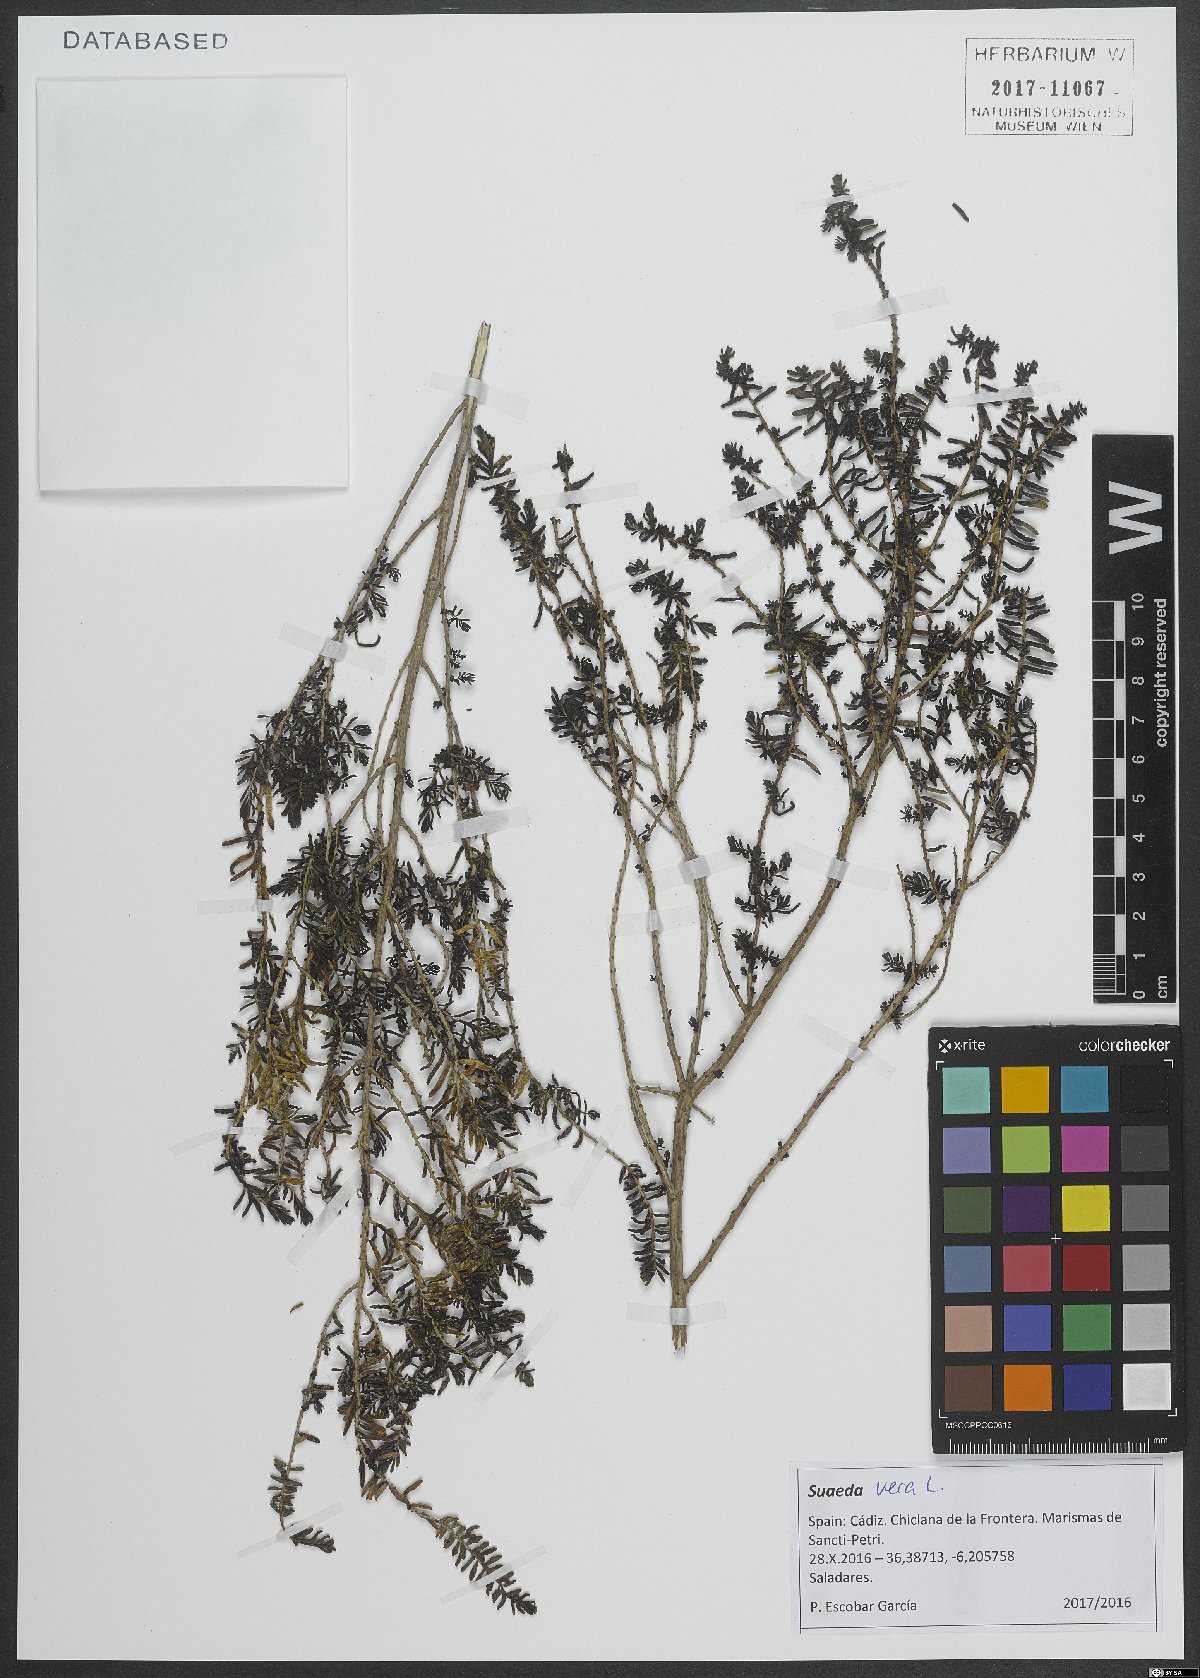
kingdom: Plantae
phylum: Tracheophyta
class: Magnoliopsida
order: Caryophyllales
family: Amaranthaceae
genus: Suaeda
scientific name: Suaeda vera
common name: Shrubby sea-blite
